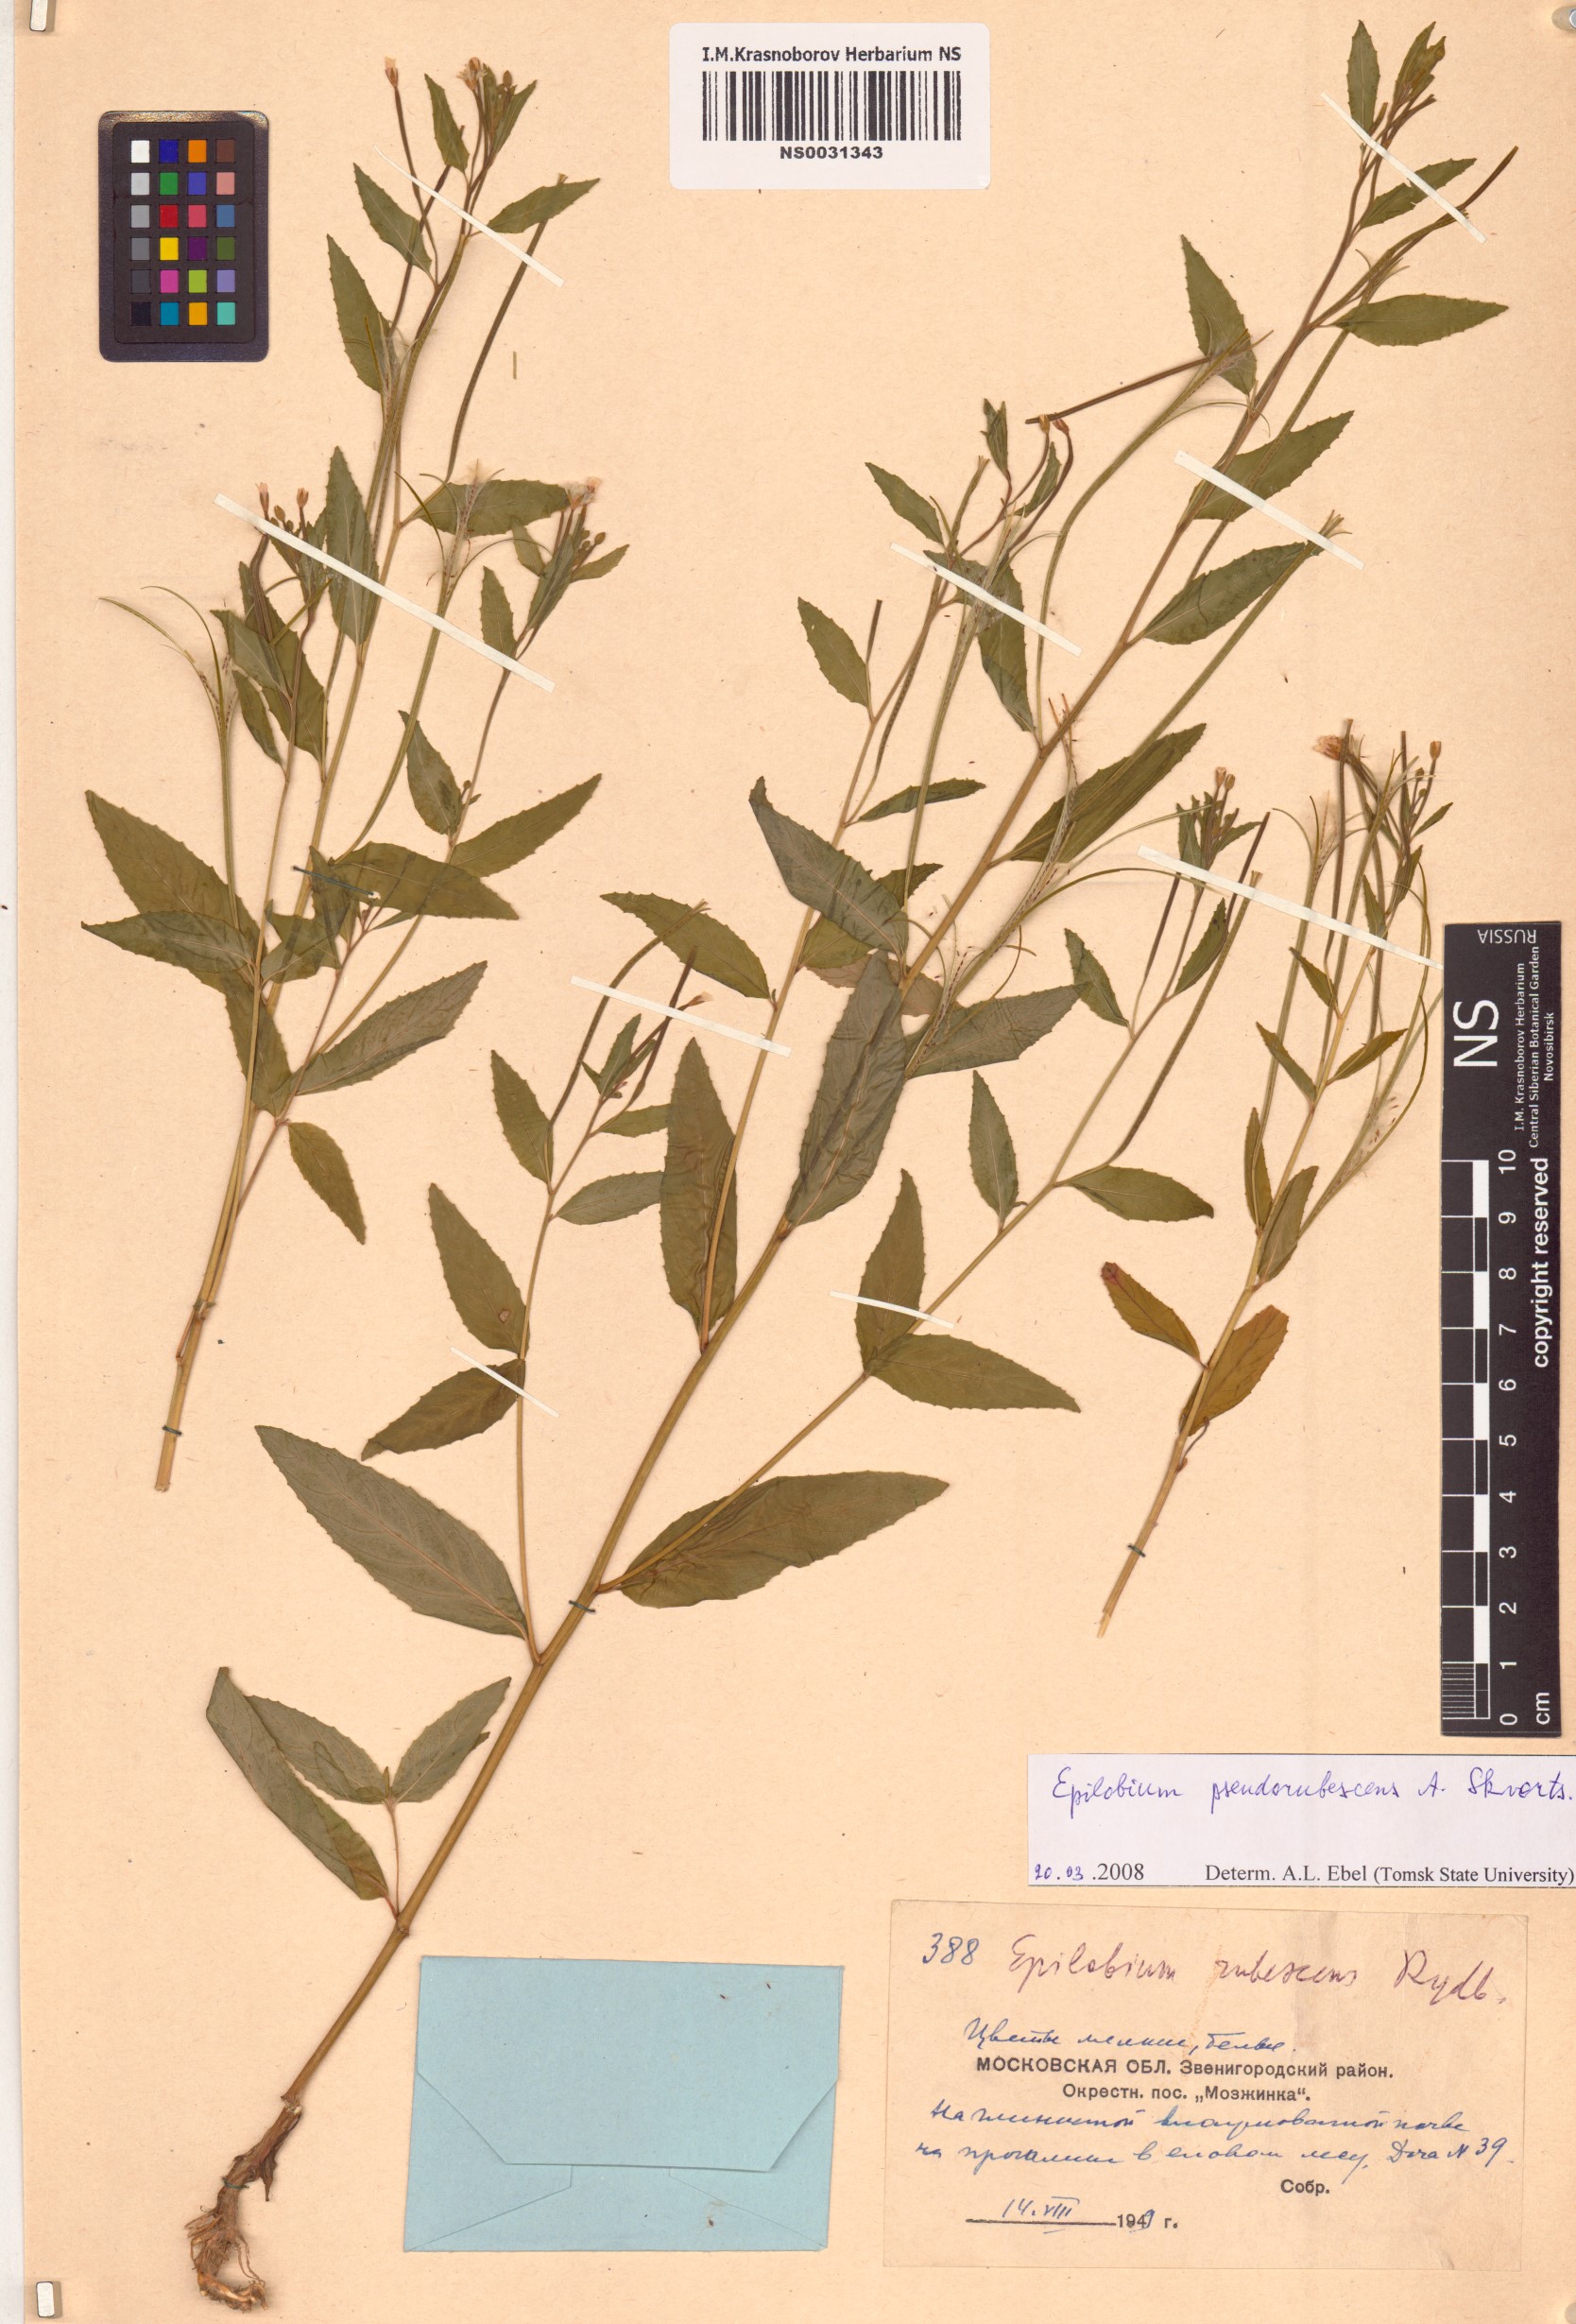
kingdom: Plantae
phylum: Tracheophyta
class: Magnoliopsida
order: Myrtales
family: Onagraceae
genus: Epilobium
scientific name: Epilobium pseudorubescens
